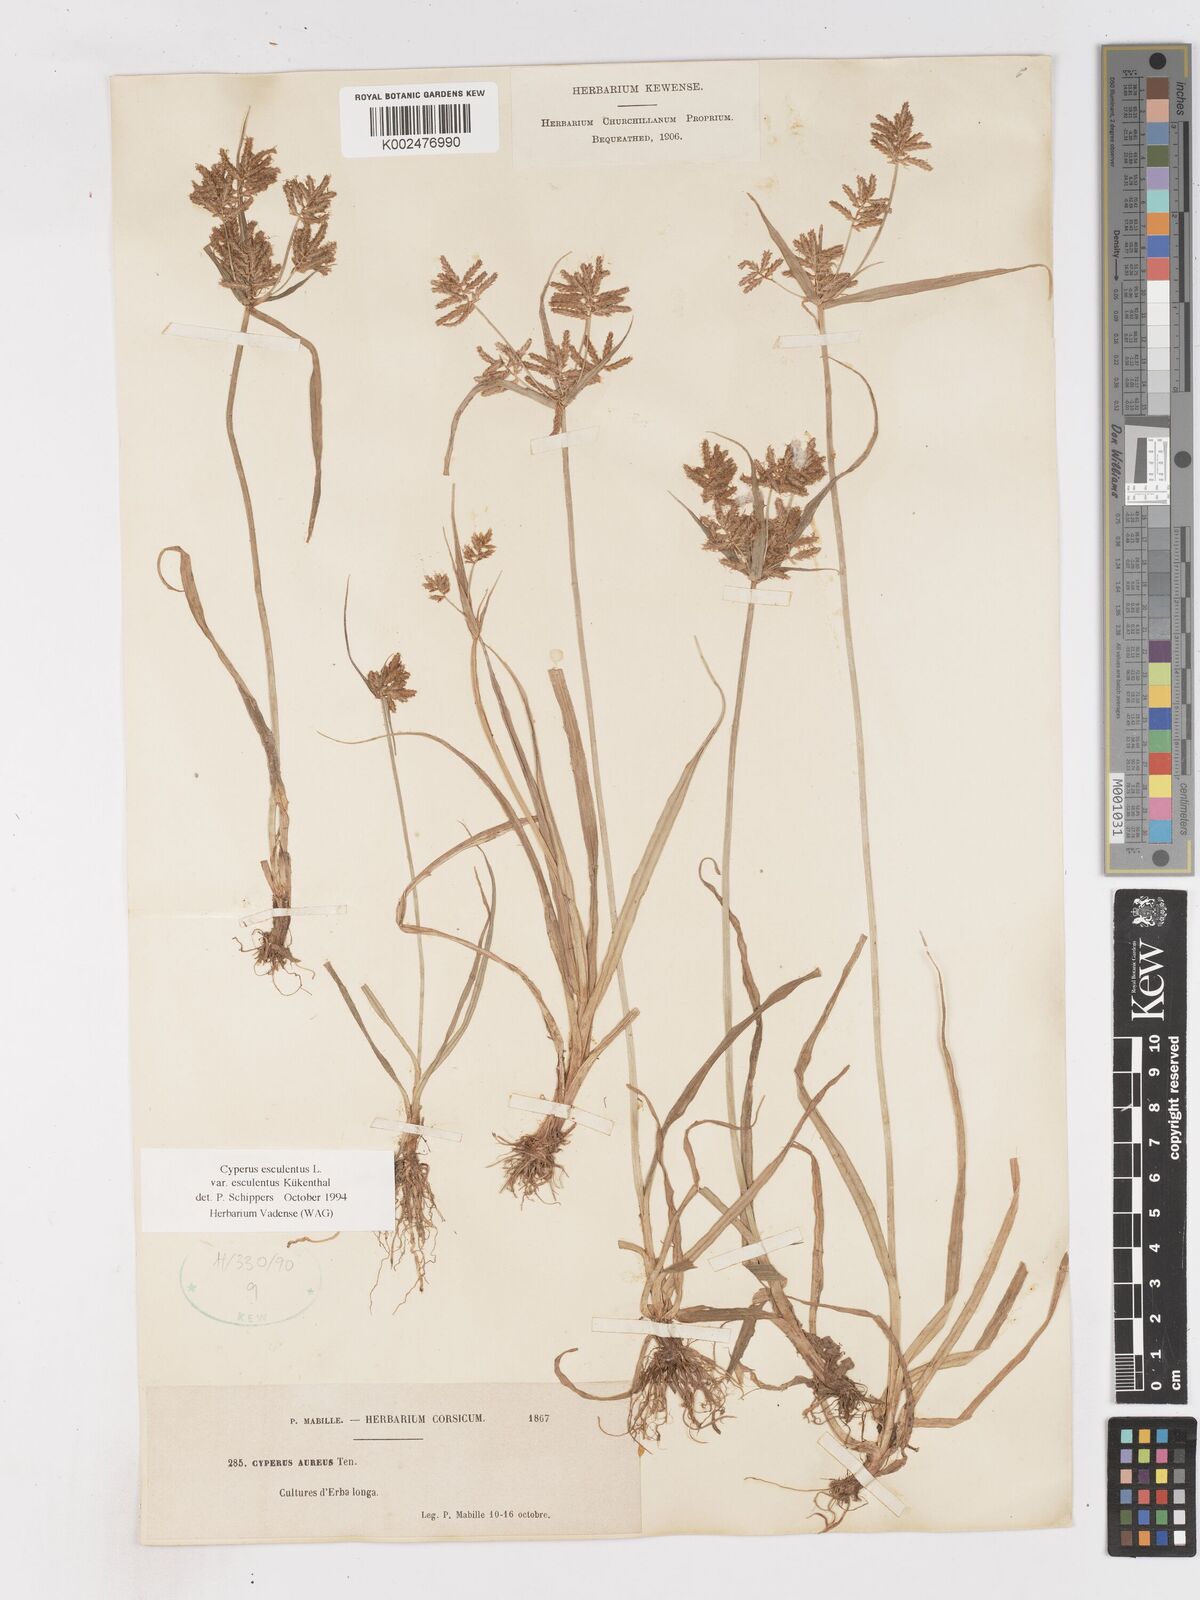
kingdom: Plantae
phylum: Tracheophyta
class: Liliopsida
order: Poales
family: Cyperaceae
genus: Cyperus
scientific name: Cyperus esculentus
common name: Yellow nutsedge
